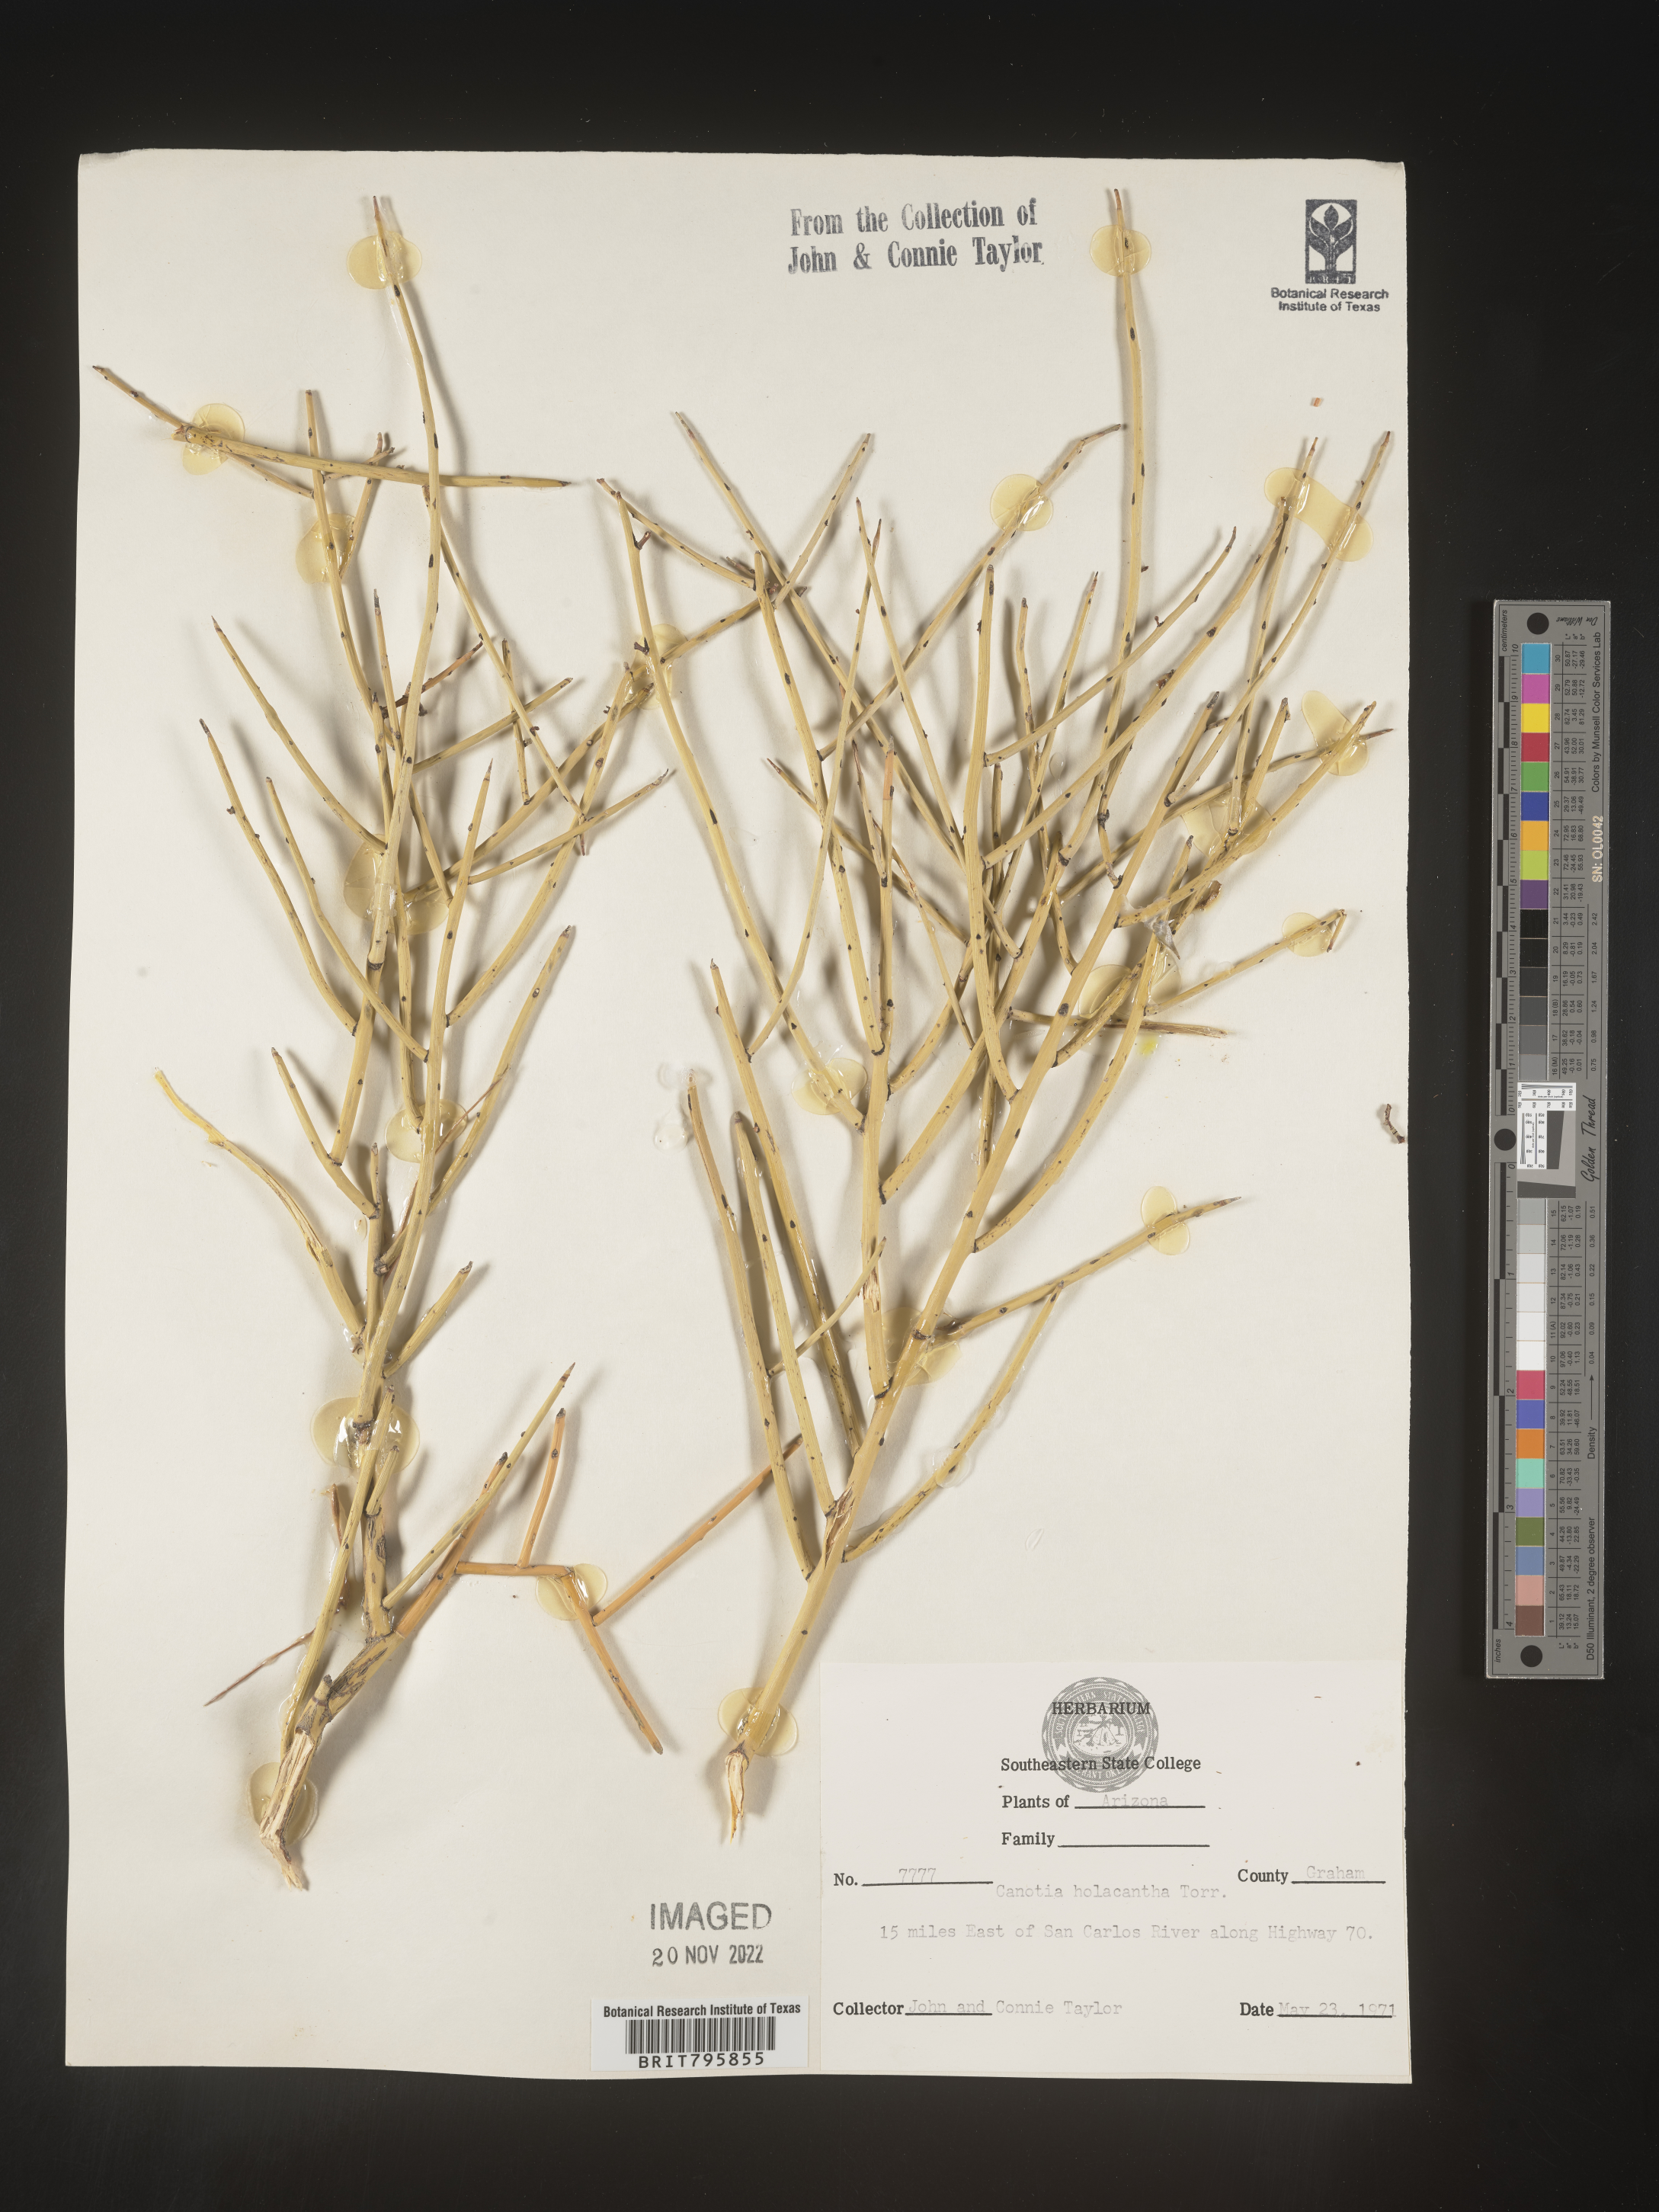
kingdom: Plantae
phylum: Tracheophyta
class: Magnoliopsida
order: Celastrales
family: Celastraceae
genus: Canotia
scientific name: Canotia
